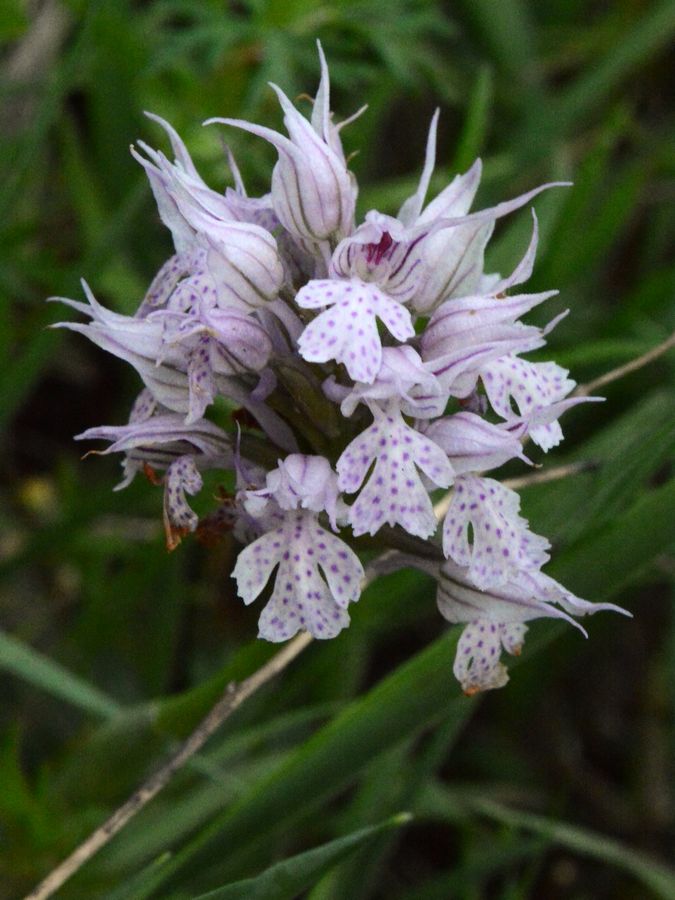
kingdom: Plantae
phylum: Tracheophyta
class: Liliopsida
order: Asparagales
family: Orchidaceae
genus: Neotinea
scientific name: Neotinea tridentata
